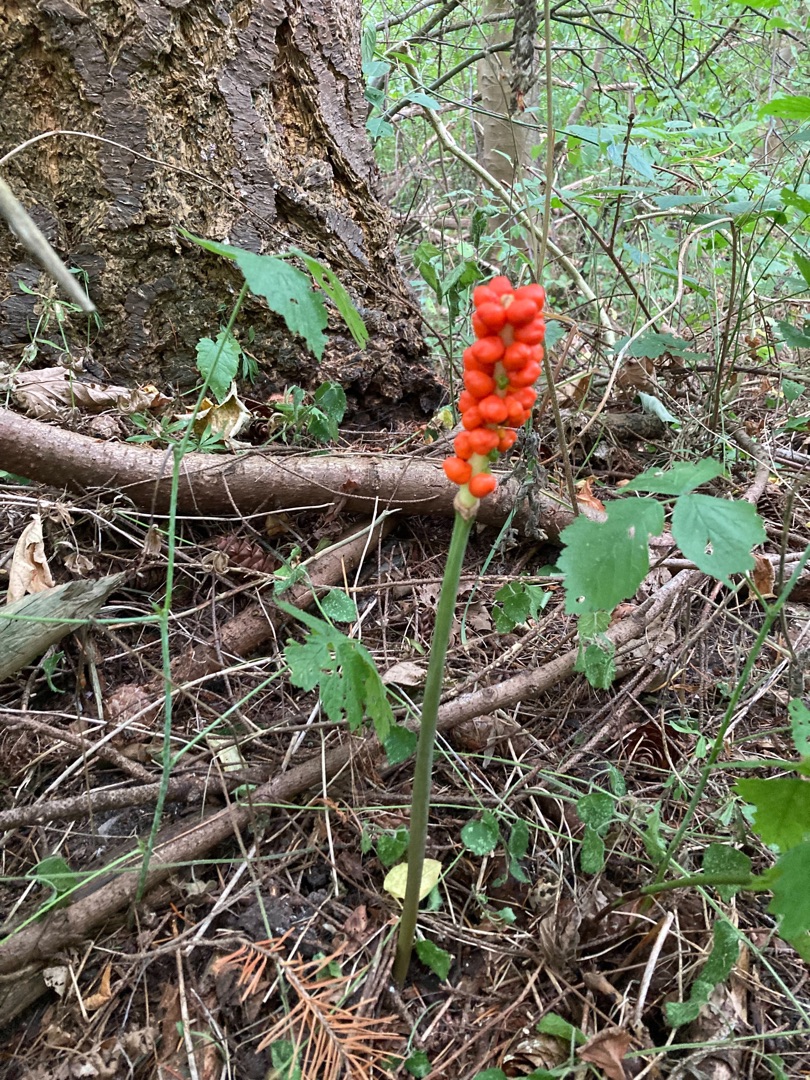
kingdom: Plantae
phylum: Tracheophyta
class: Liliopsida
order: Alismatales
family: Araceae
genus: Arum
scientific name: Arum
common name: Arumslægten
